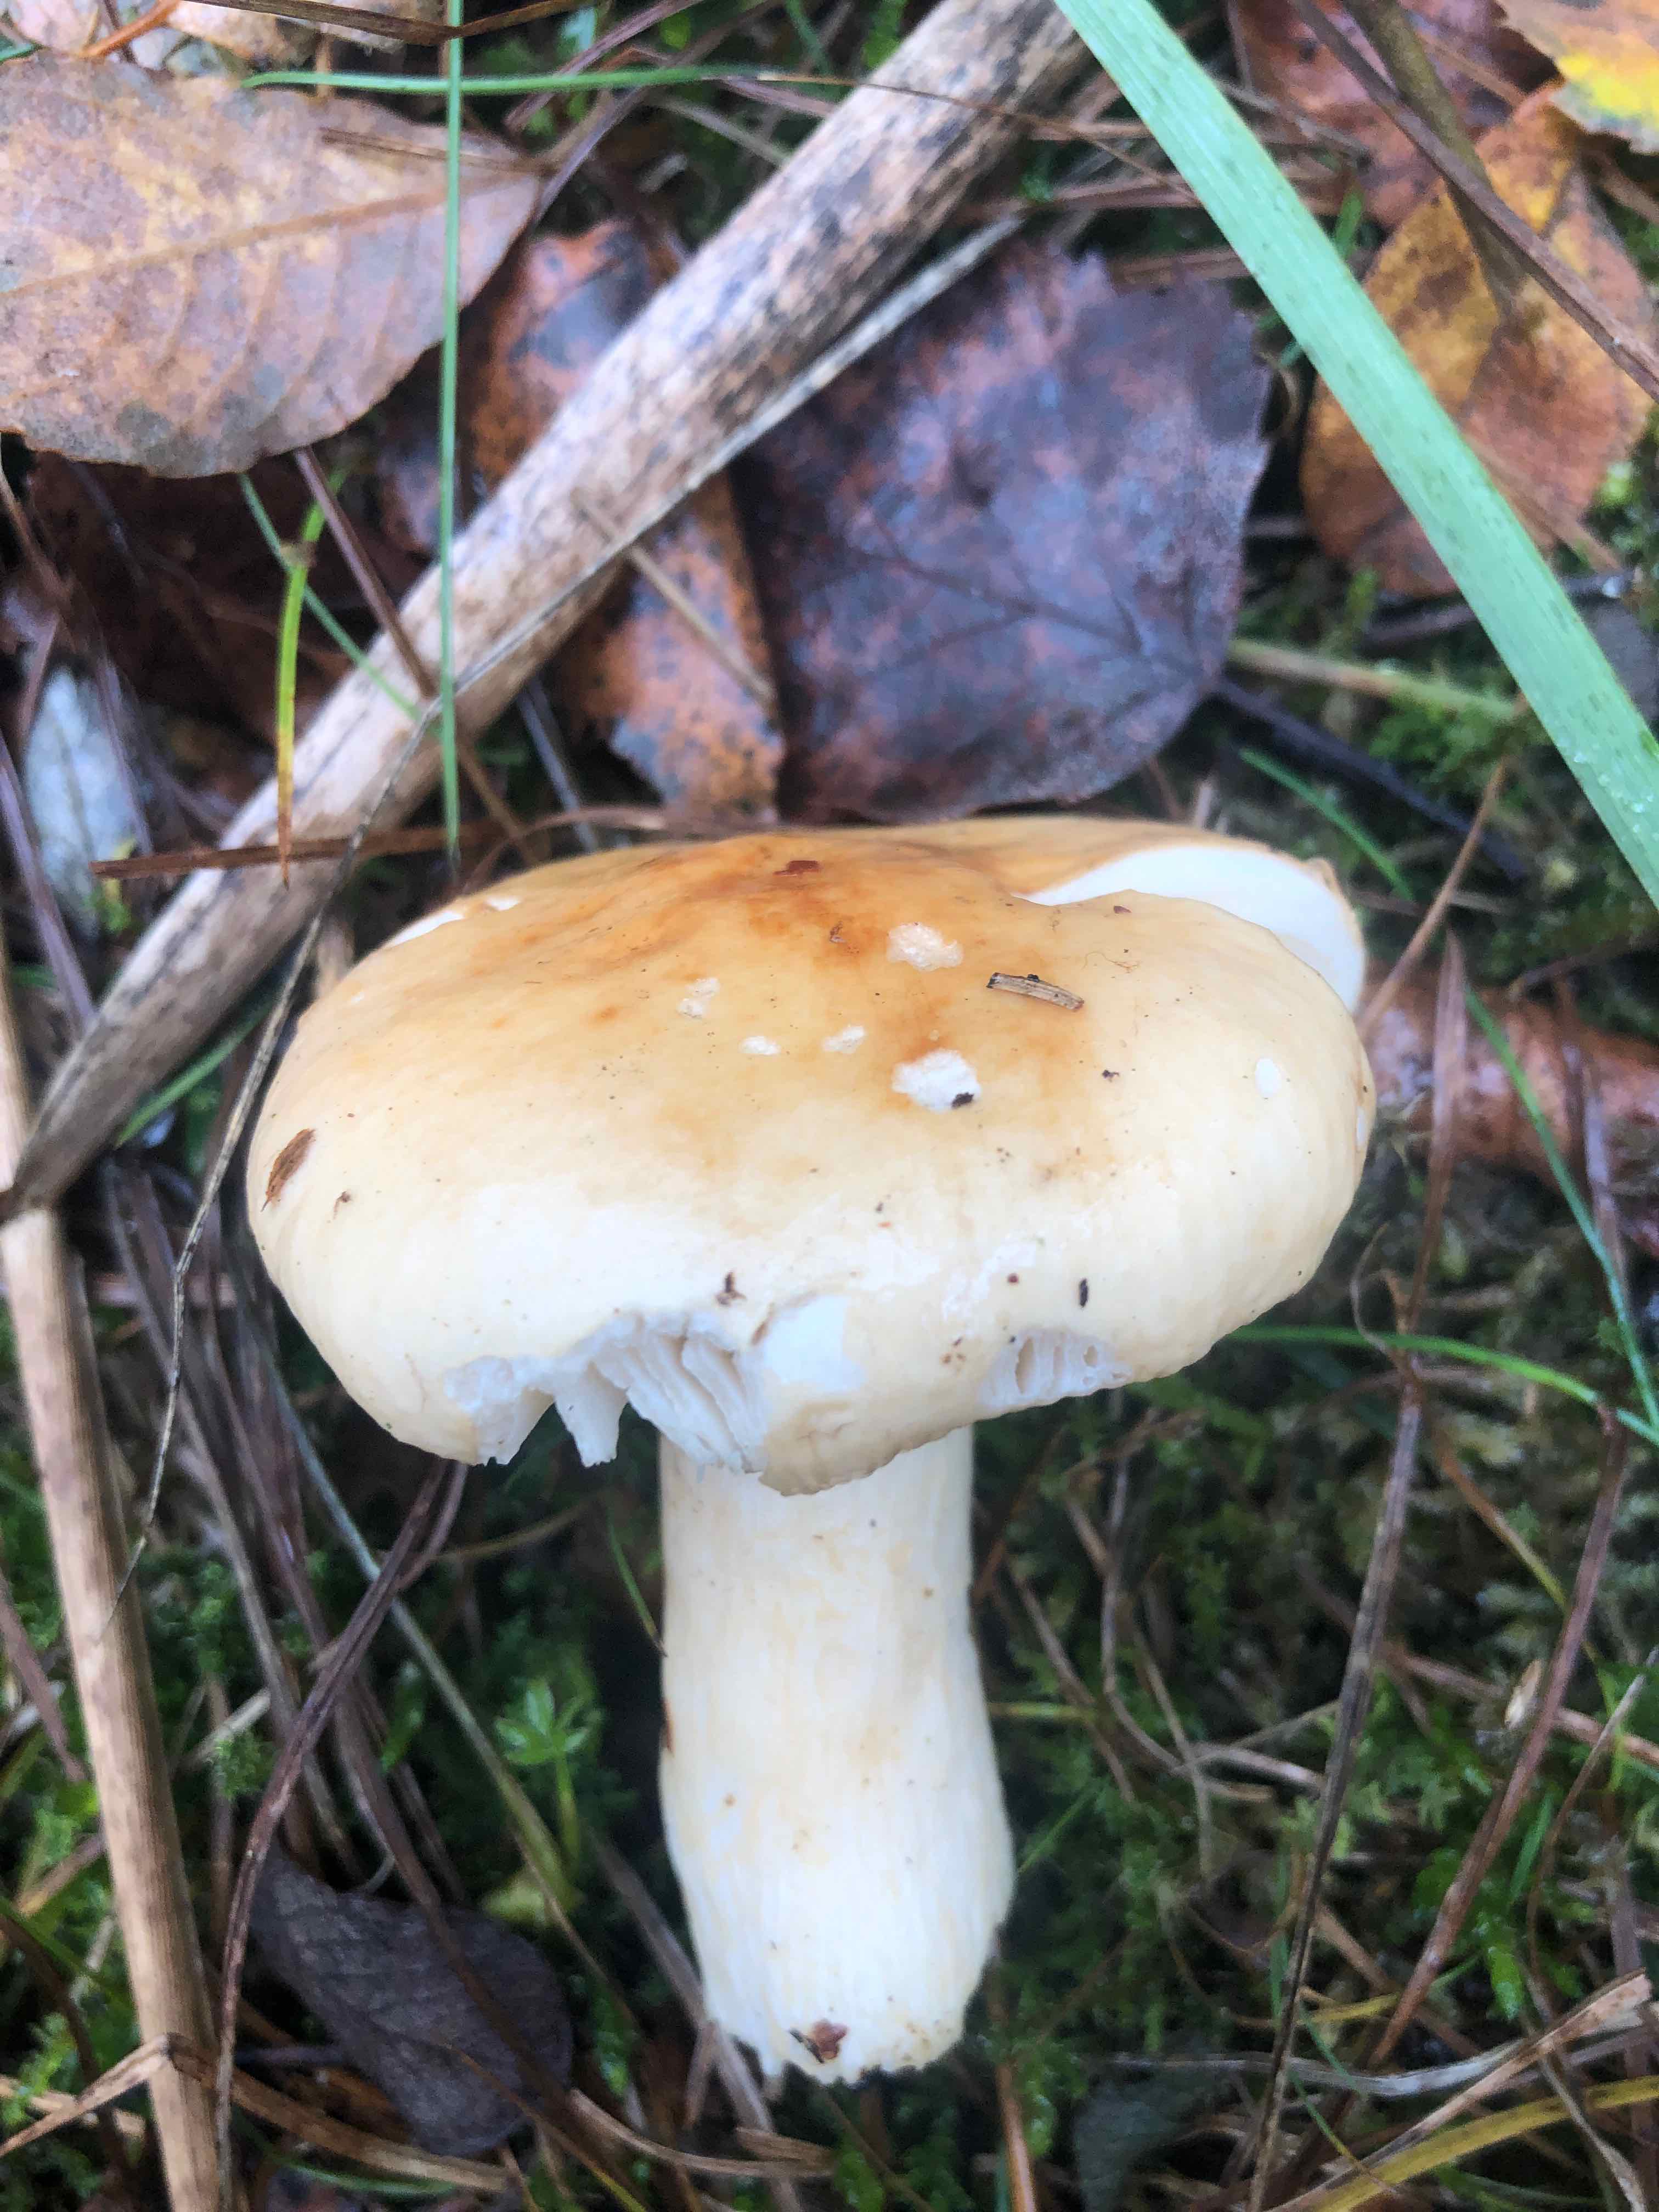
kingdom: Fungi
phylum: Basidiomycota
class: Agaricomycetes
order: Russulales
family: Russulaceae
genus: Russula
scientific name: Russula
